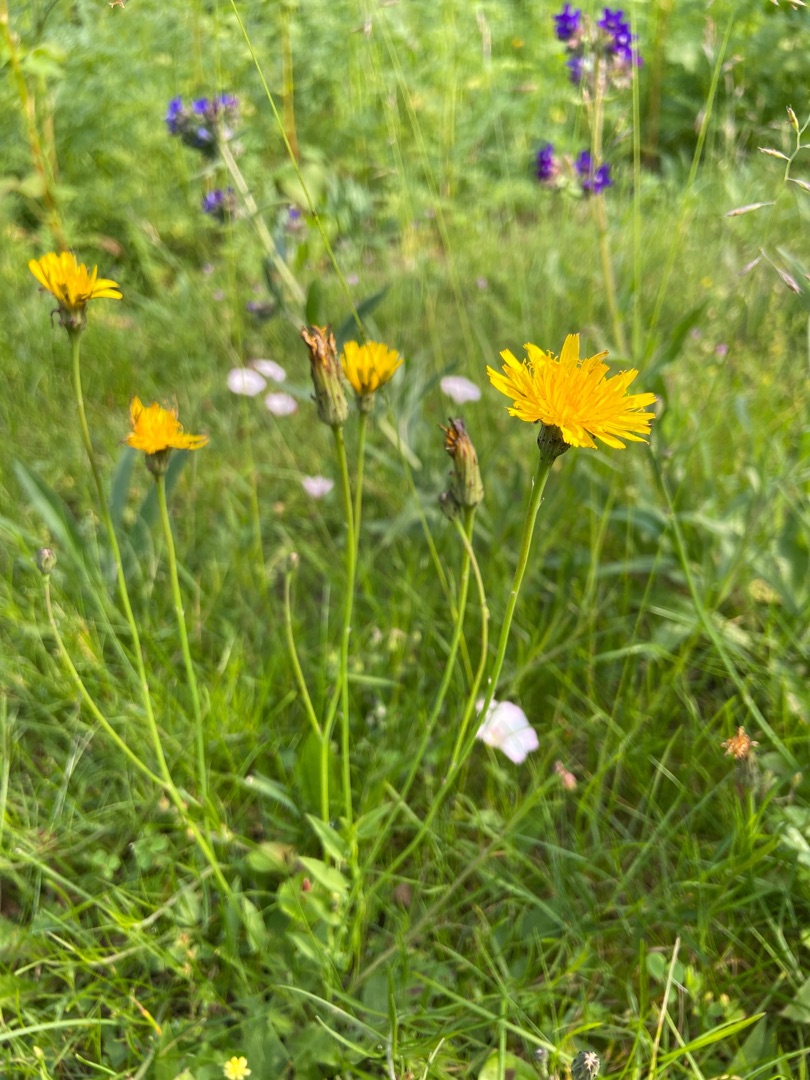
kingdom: Plantae
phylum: Tracheophyta
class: Magnoliopsida
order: Asterales
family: Asteraceae
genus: Hypochaeris
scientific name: Hypochaeris radicata
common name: Almindelig kongepen
